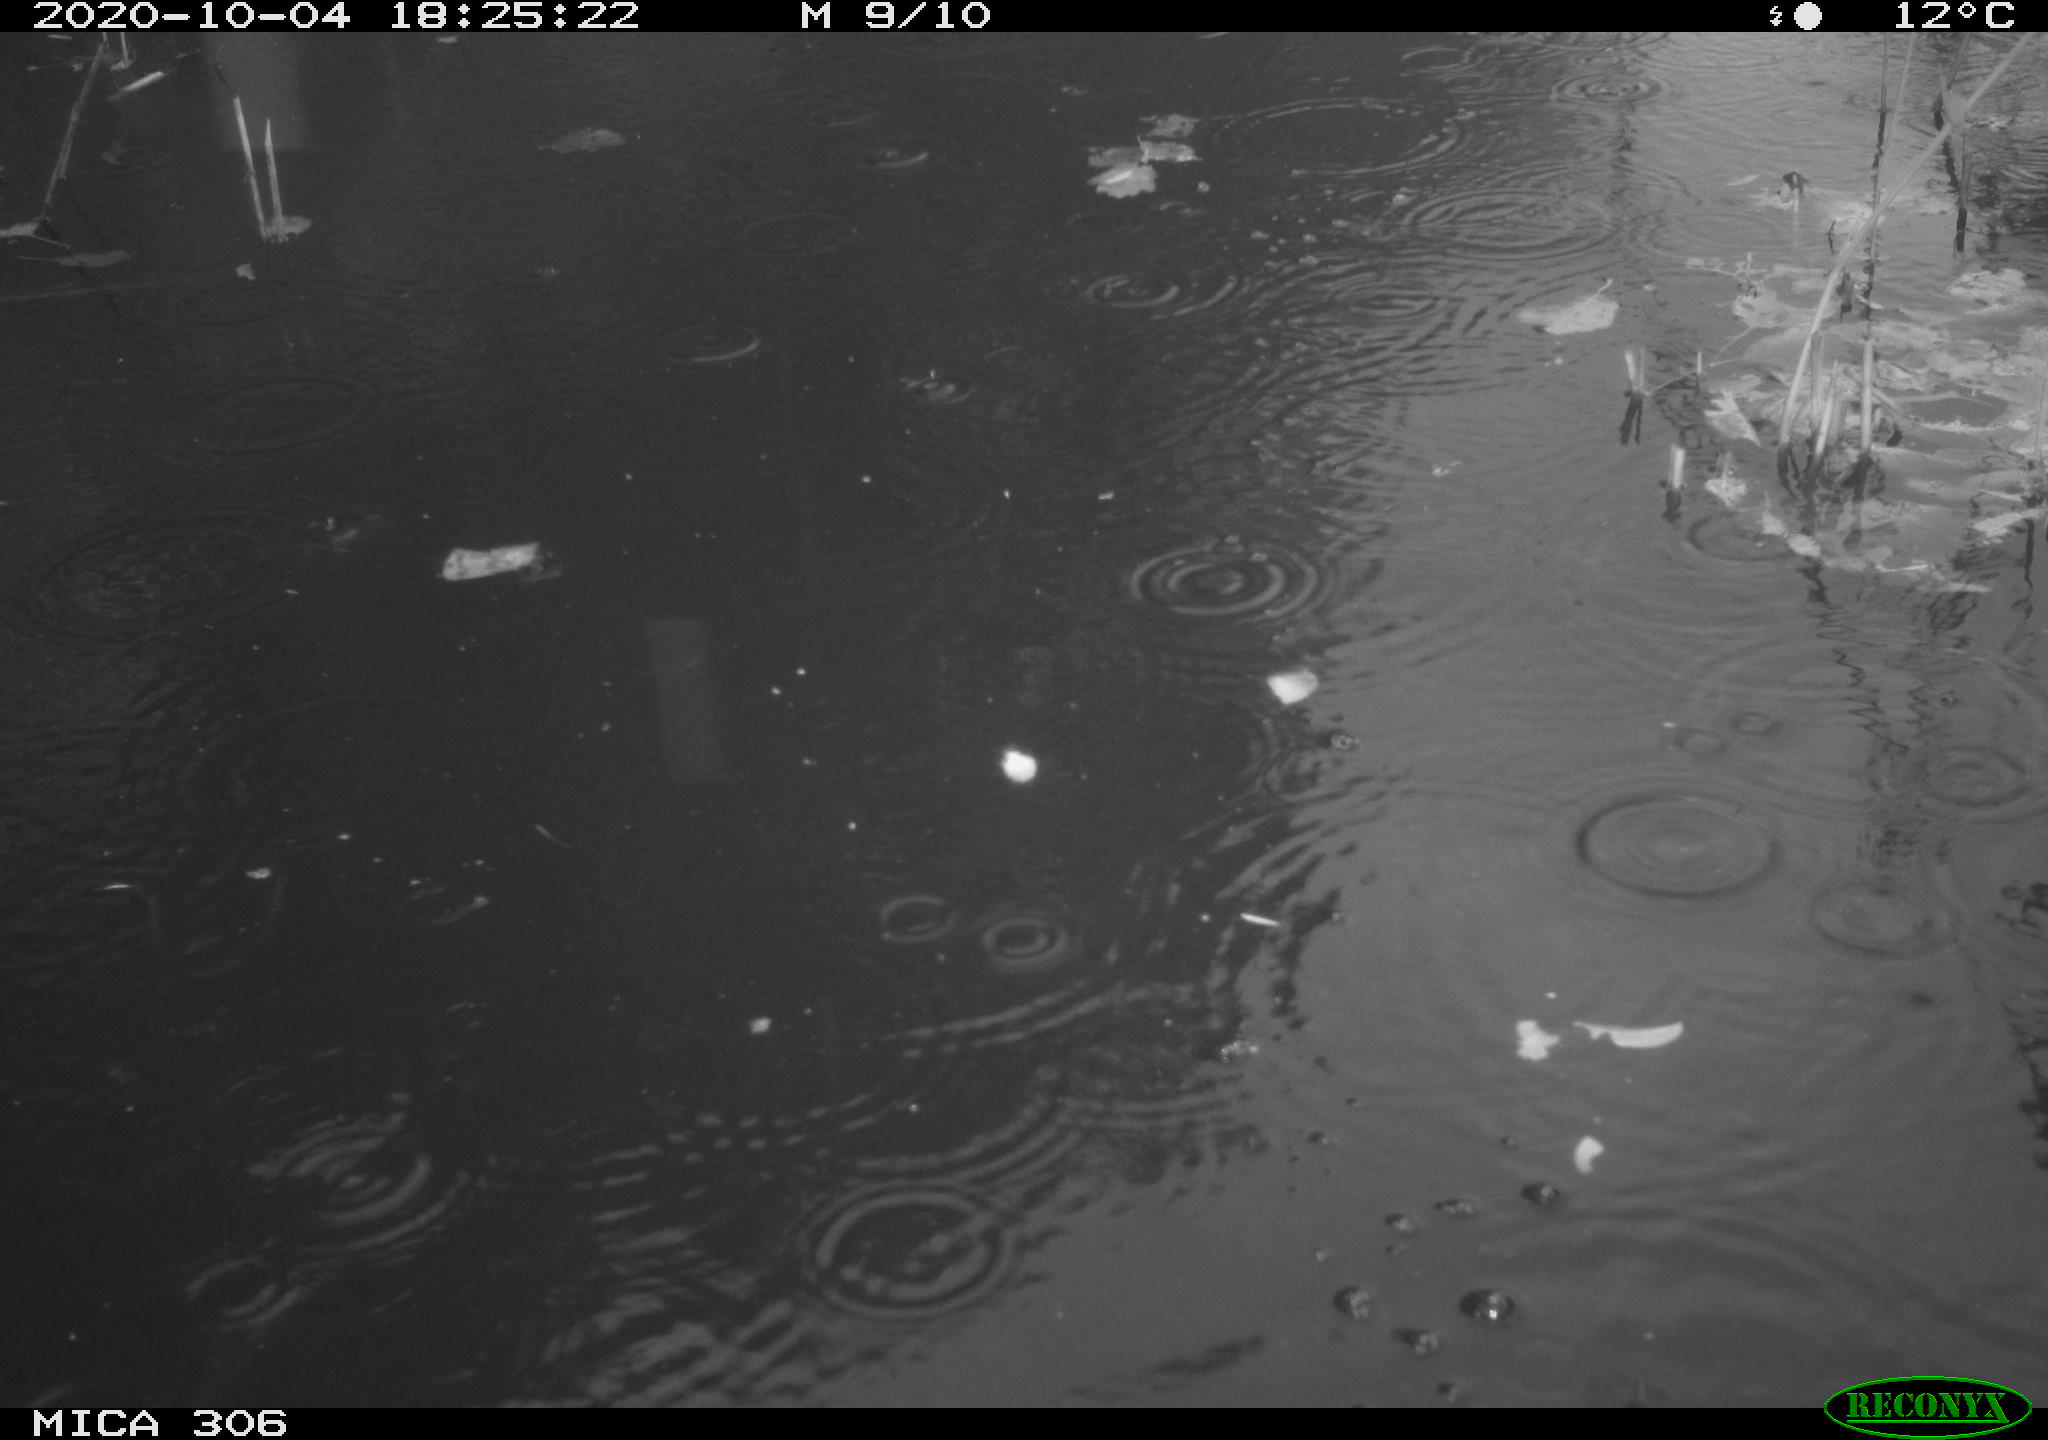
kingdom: Animalia
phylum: Chordata
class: Aves
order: Gruiformes
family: Rallidae
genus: Gallinula
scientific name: Gallinula chloropus
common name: Common moorhen
